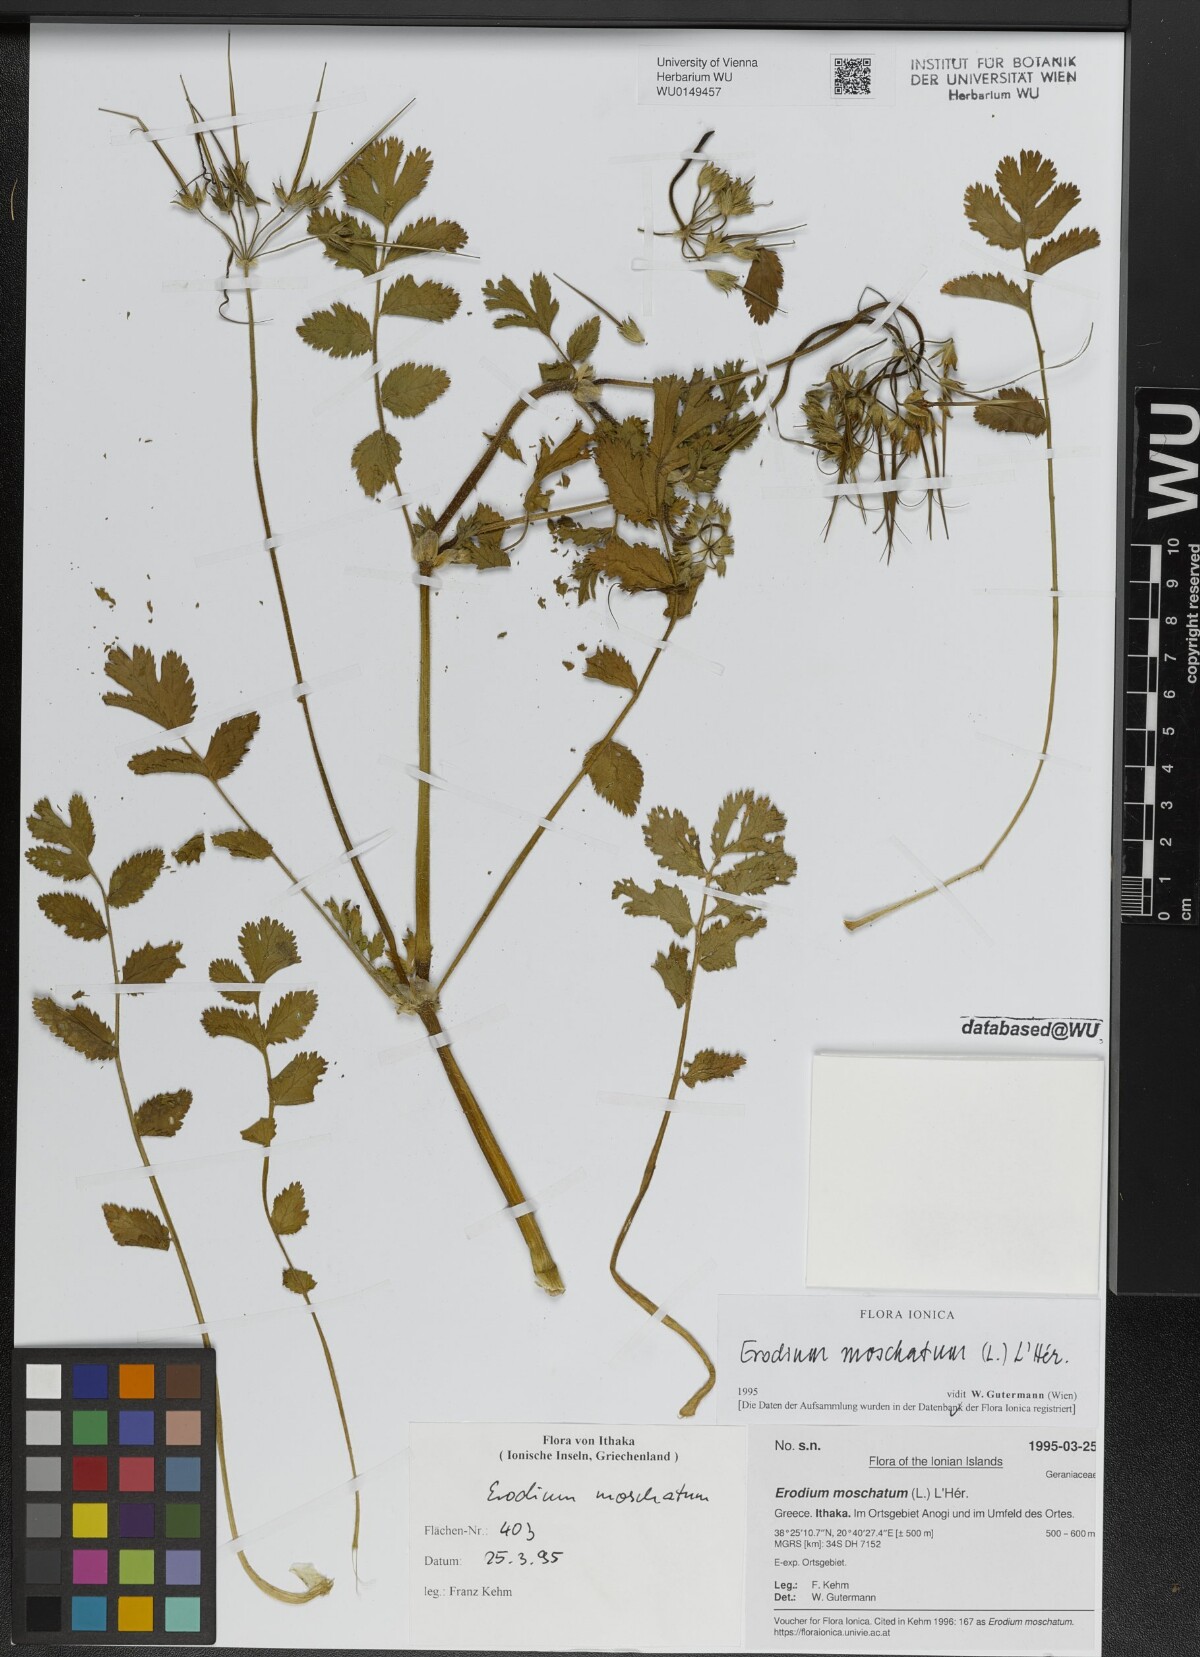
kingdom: Plantae
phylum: Tracheophyta
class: Magnoliopsida
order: Geraniales
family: Geraniaceae
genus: Erodium
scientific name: Erodium moschatum
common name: Musk stork's-bill
